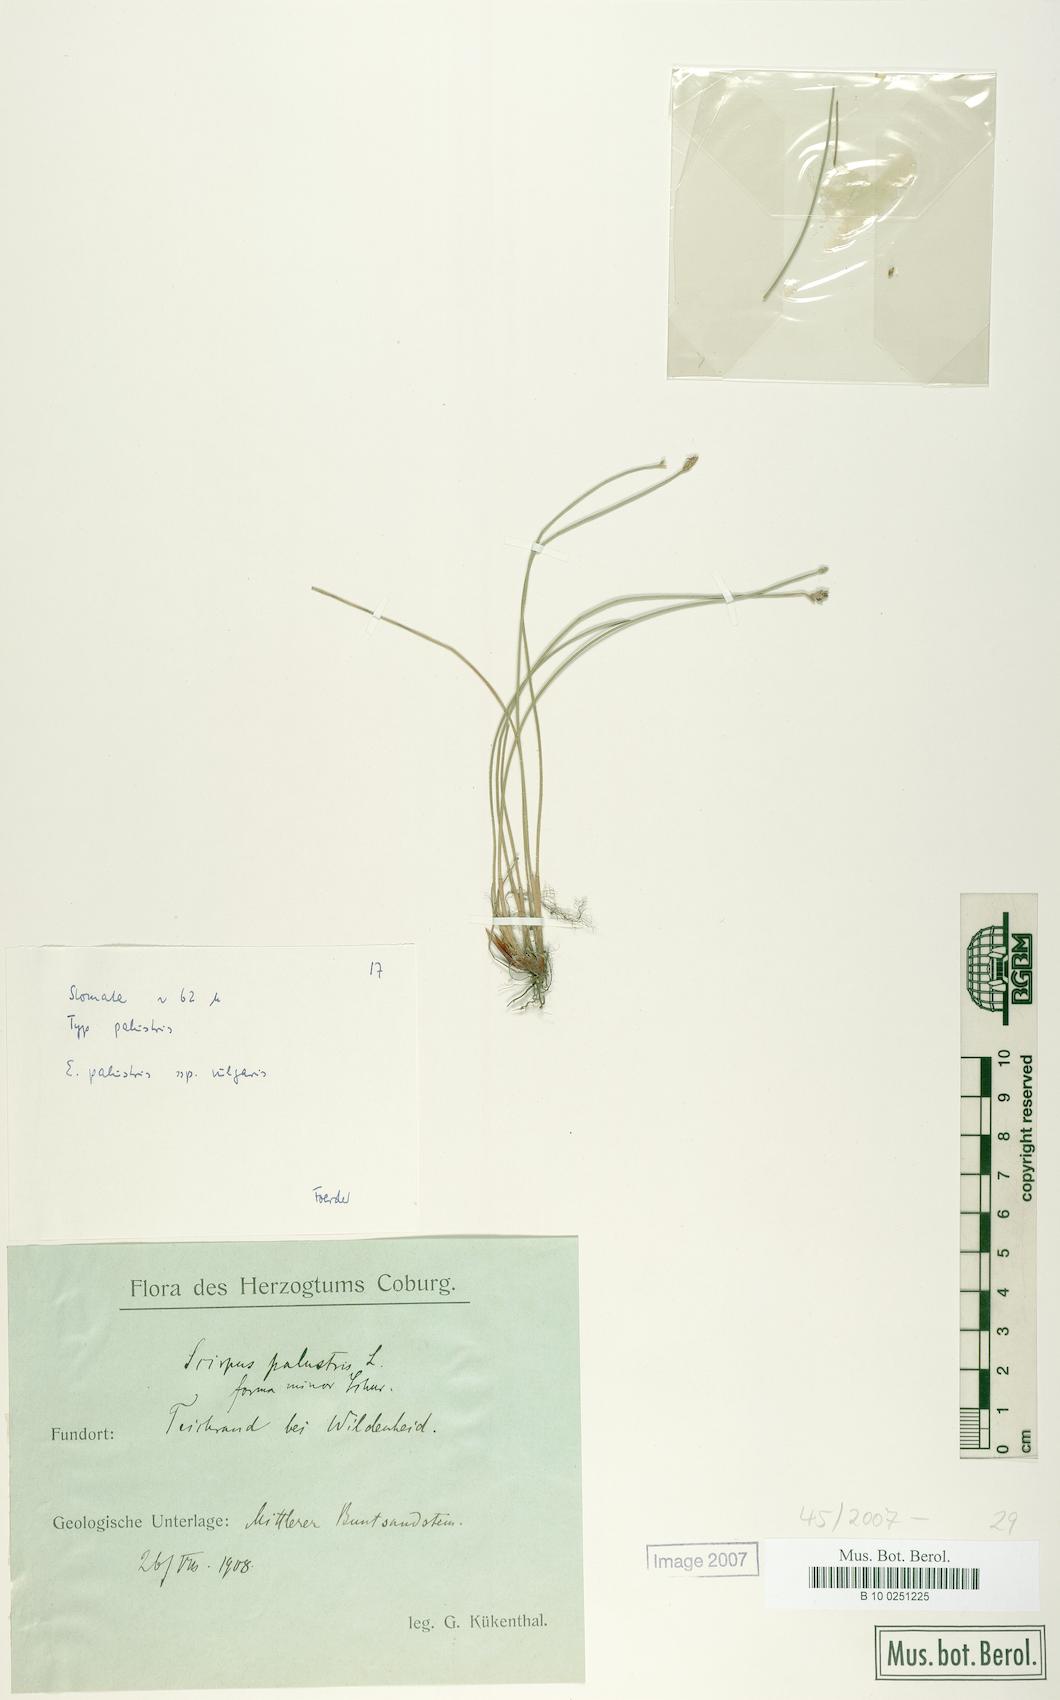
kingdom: Plantae
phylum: Tracheophyta
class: Liliopsida
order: Poales
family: Cyperaceae
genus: Eleocharis
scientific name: Eleocharis palustris
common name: Common spike-rush
